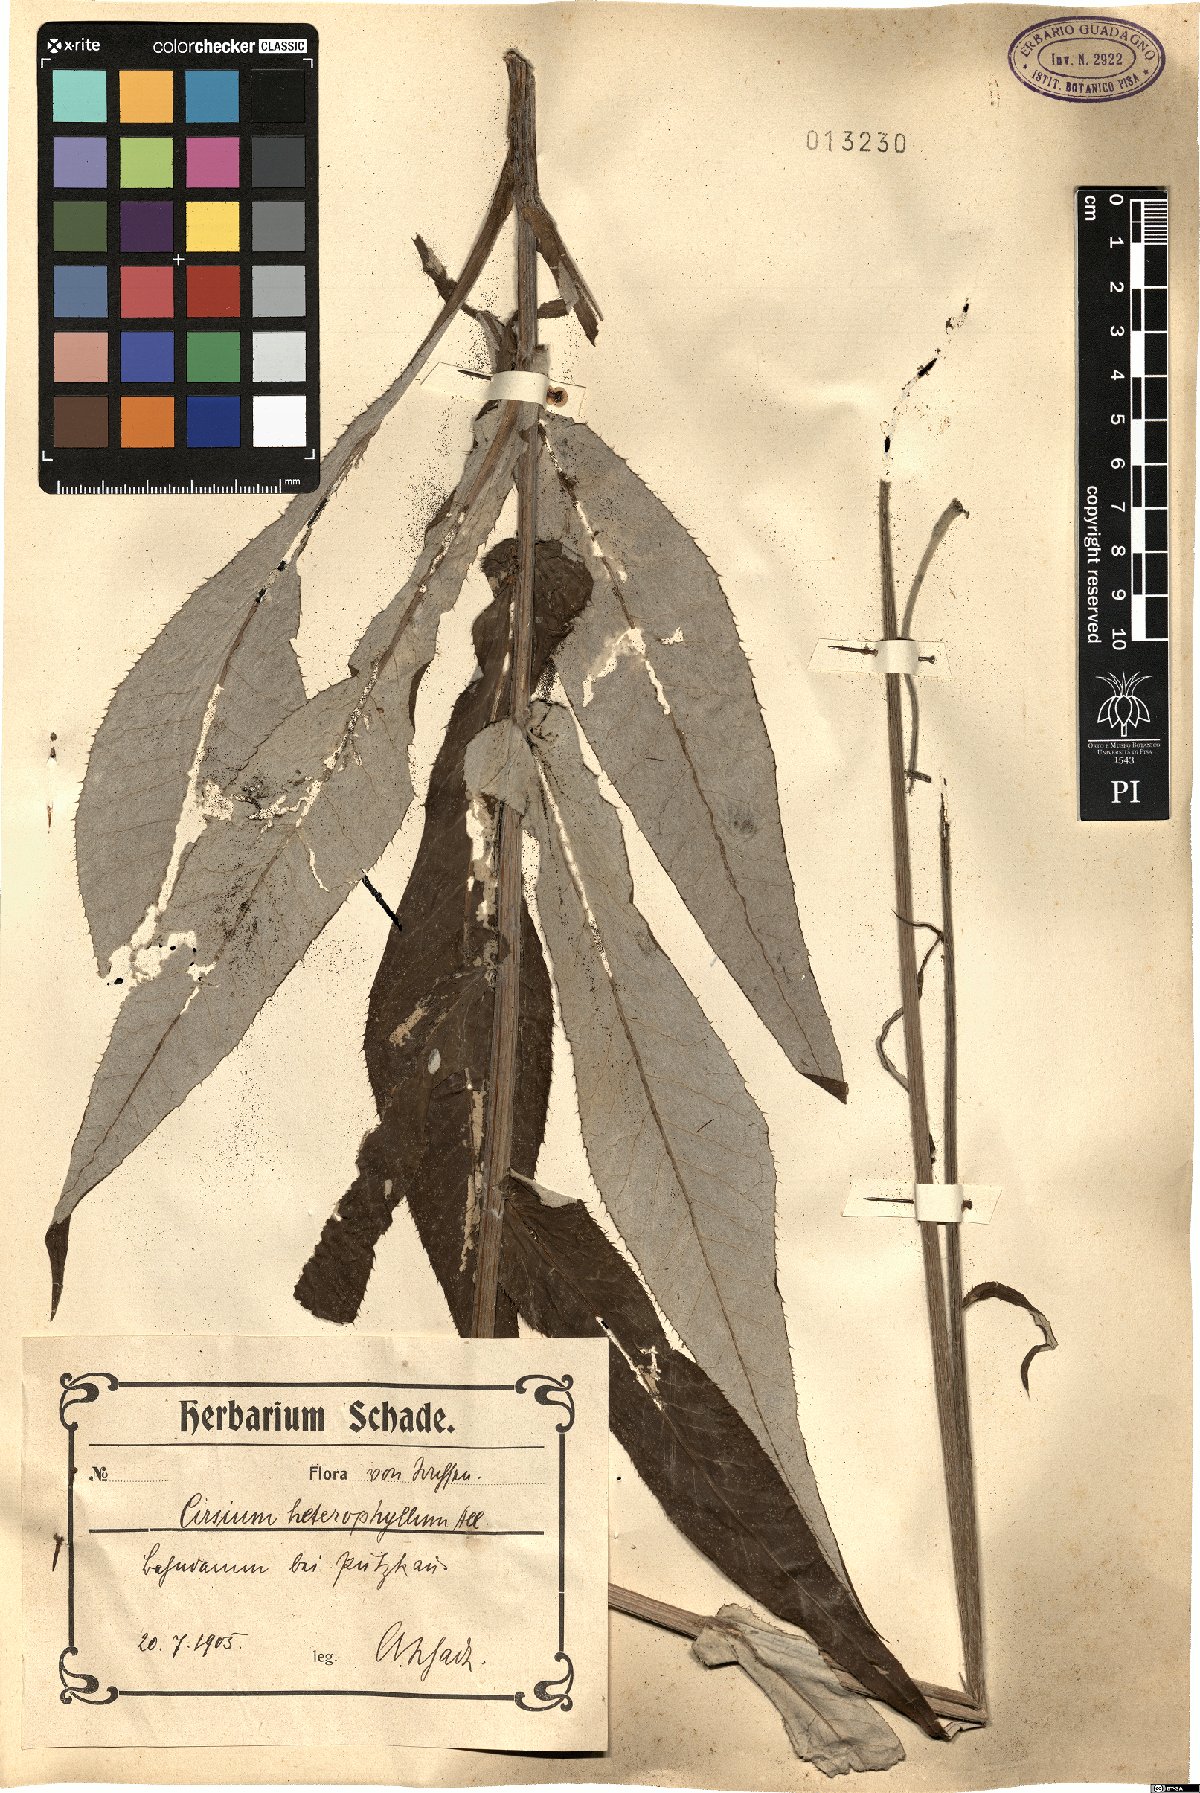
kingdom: Plantae
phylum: Tracheophyta
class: Magnoliopsida
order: Asterales
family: Asteraceae
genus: Cirsium
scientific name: Cirsium heterophyllum
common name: Melancholy thistle
